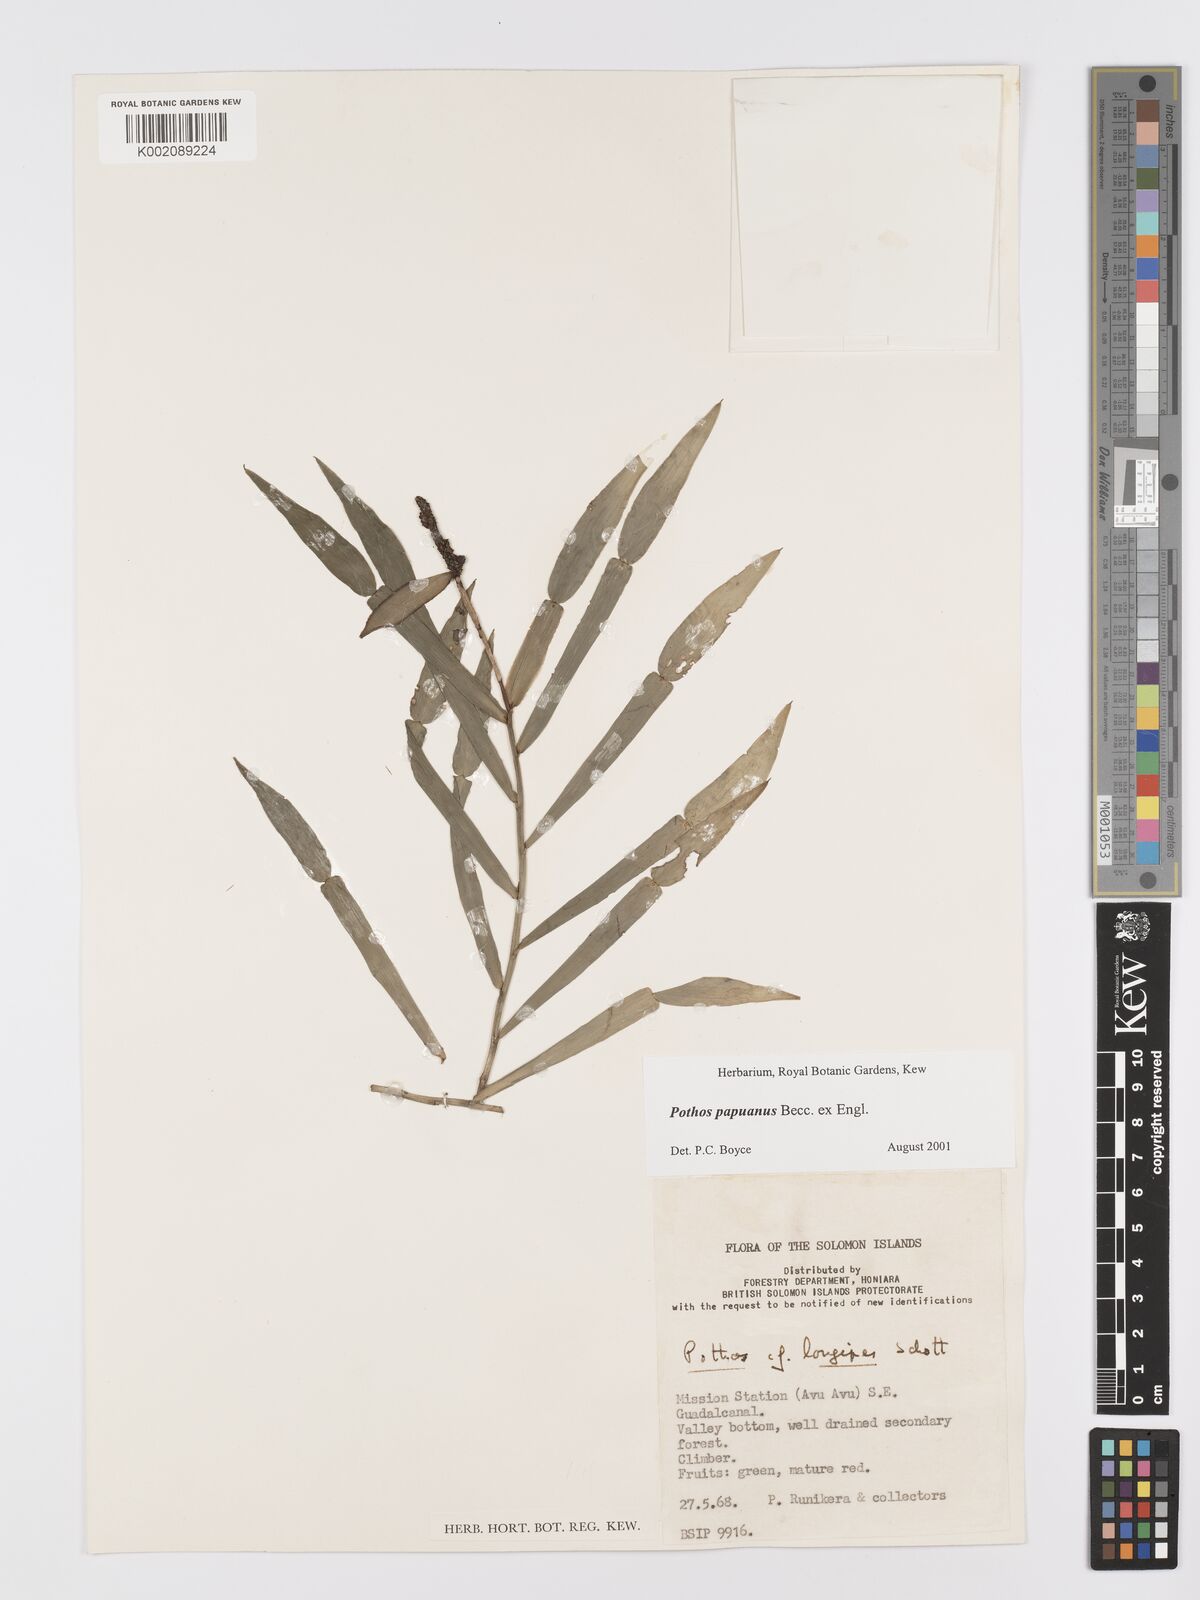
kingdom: Plantae
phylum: Tracheophyta
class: Liliopsida
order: Alismatales
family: Araceae
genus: Pothos
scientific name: Pothos papuanus
